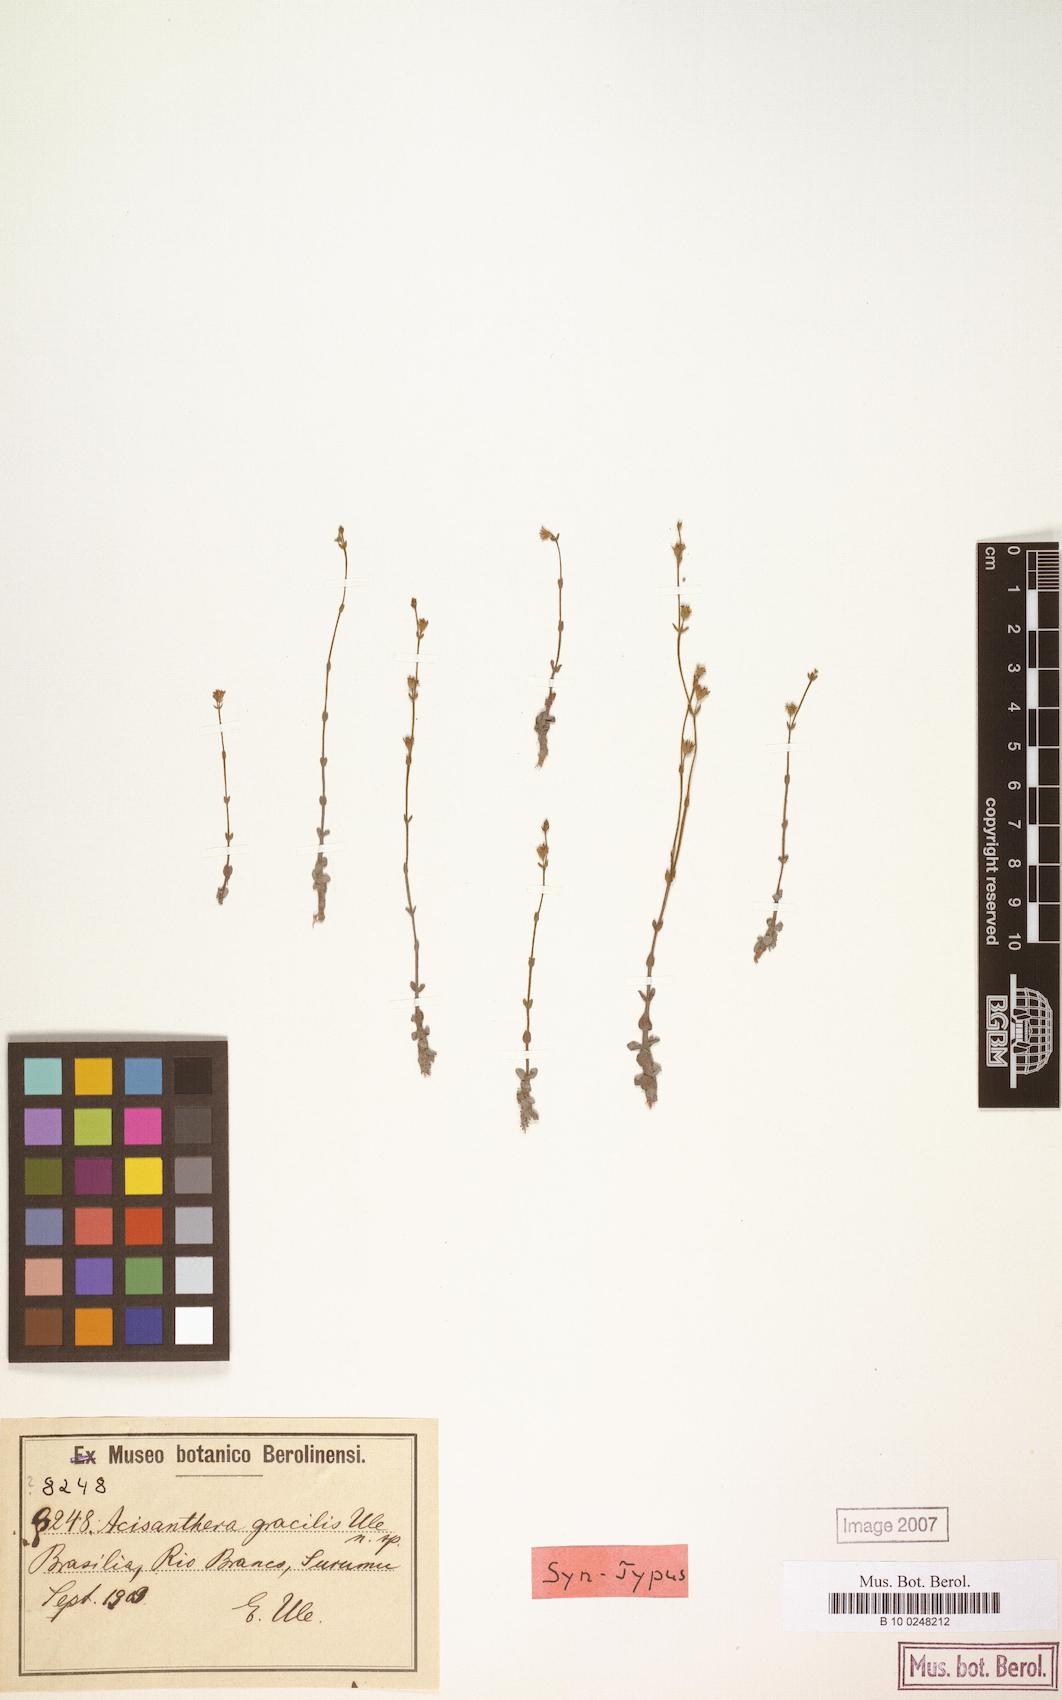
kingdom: Plantae
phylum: Tracheophyta
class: Magnoliopsida
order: Myrtales
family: Melastomataceae
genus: Noterophila
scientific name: Noterophila crassipes
